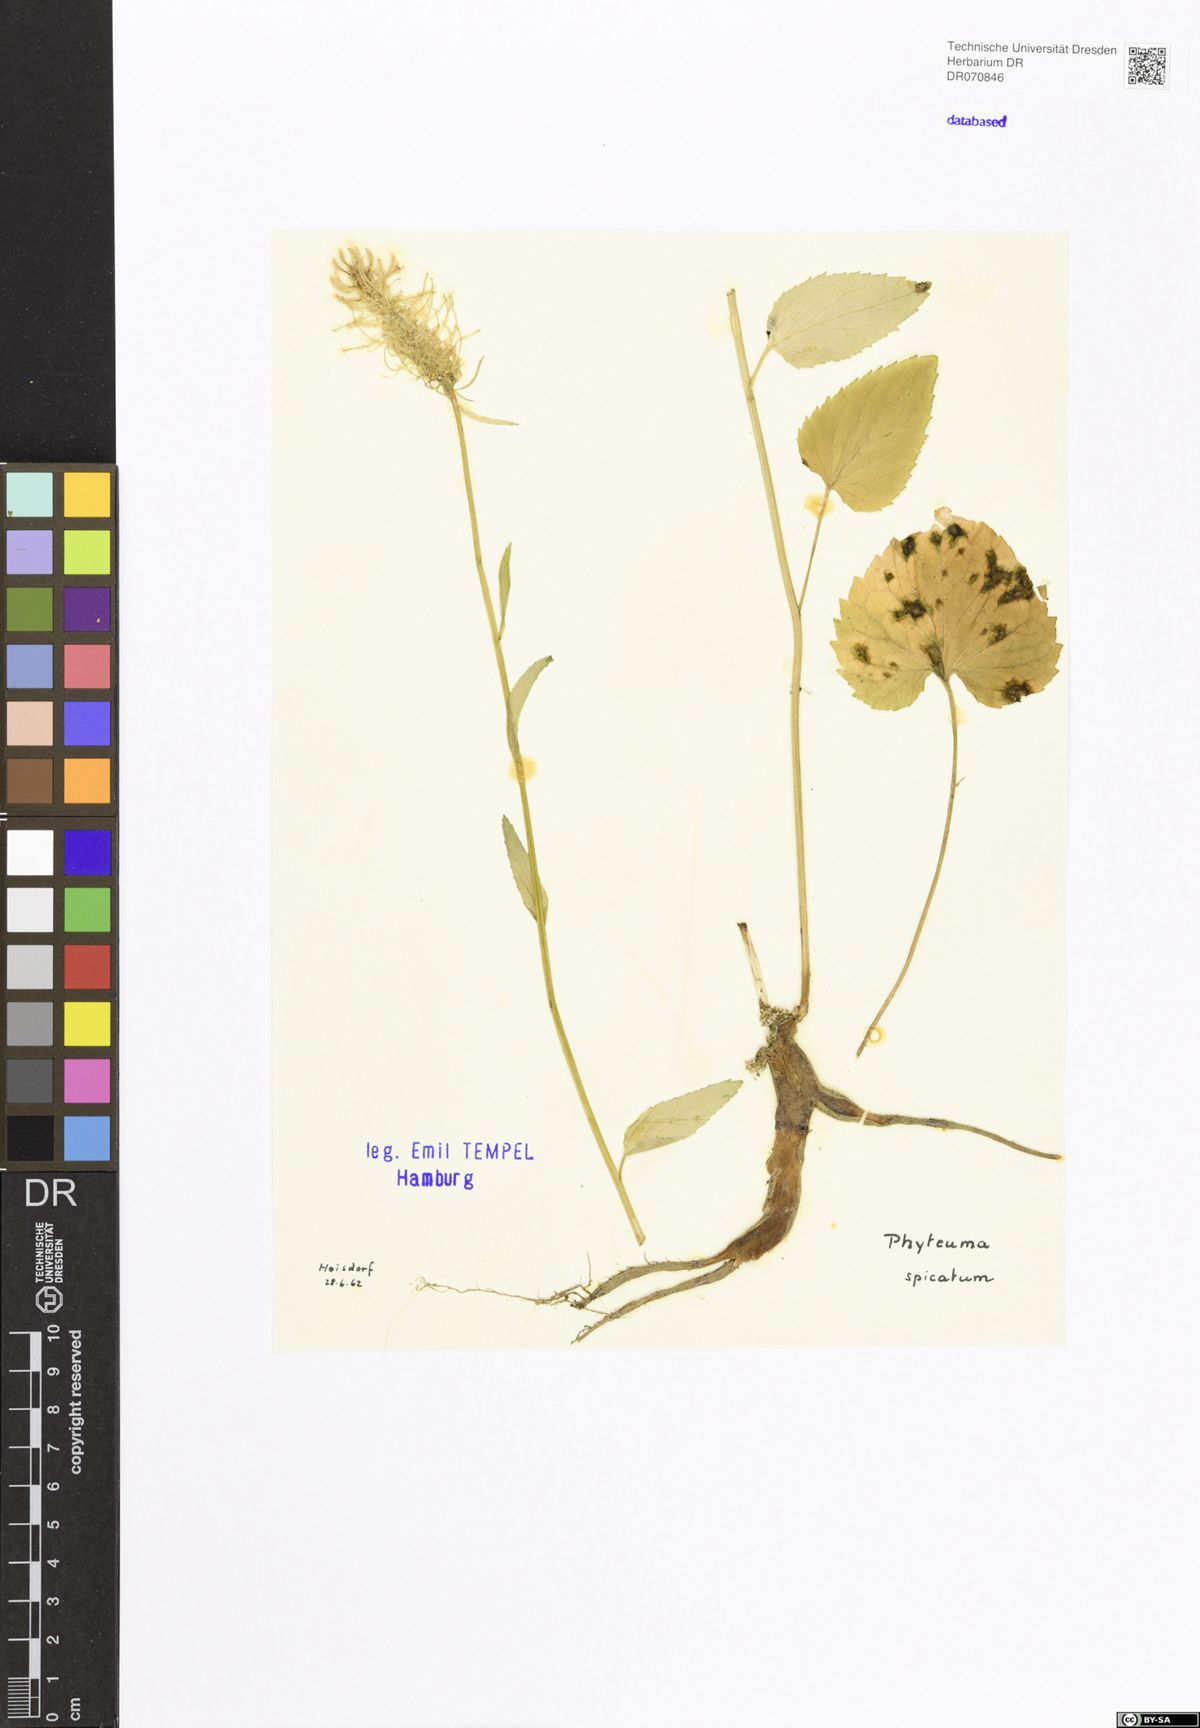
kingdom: Plantae
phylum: Tracheophyta
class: Magnoliopsida
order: Asterales
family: Campanulaceae
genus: Phyteuma
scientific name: Phyteuma spicatum
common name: Spiked rampion
